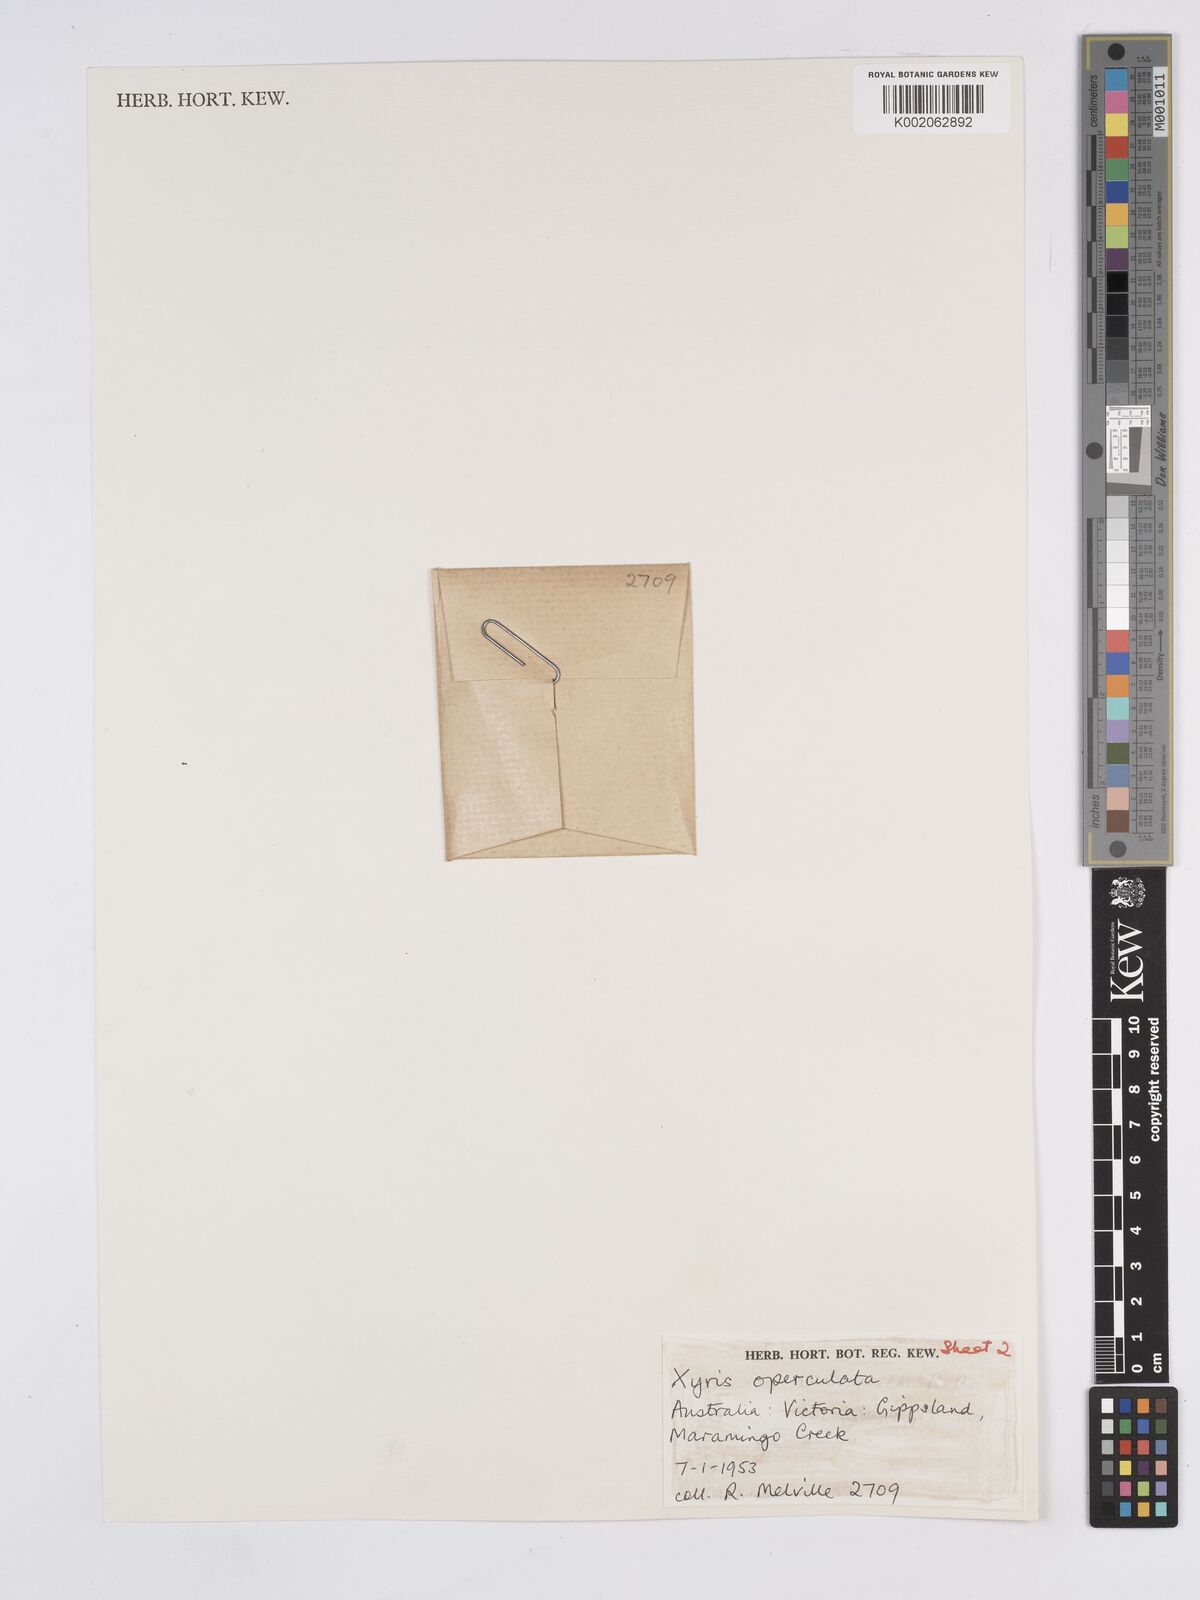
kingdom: Plantae
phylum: Tracheophyta
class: Liliopsida
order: Poales
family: Xyridaceae
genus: Xyris
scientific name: Xyris operculata
